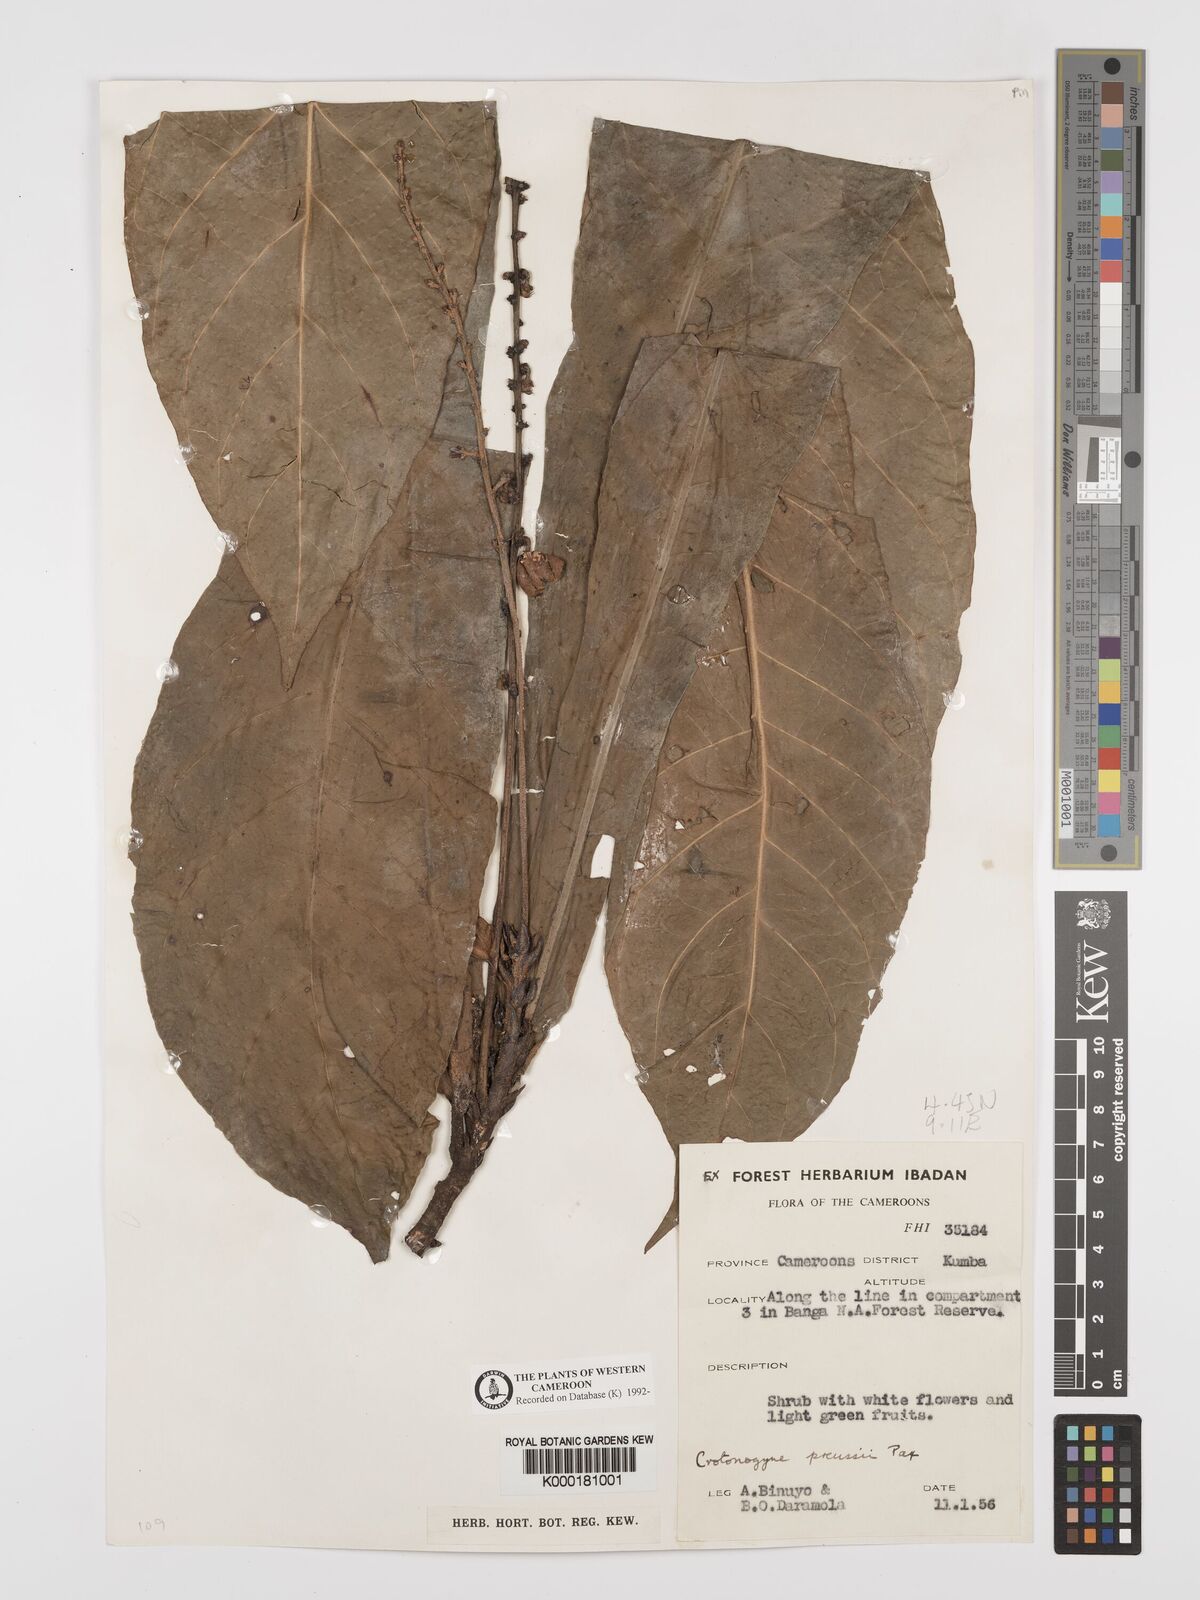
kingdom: Plantae
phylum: Tracheophyta
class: Magnoliopsida
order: Malpighiales
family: Euphorbiaceae
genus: Crotonogyne
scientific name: Crotonogyne preussii
